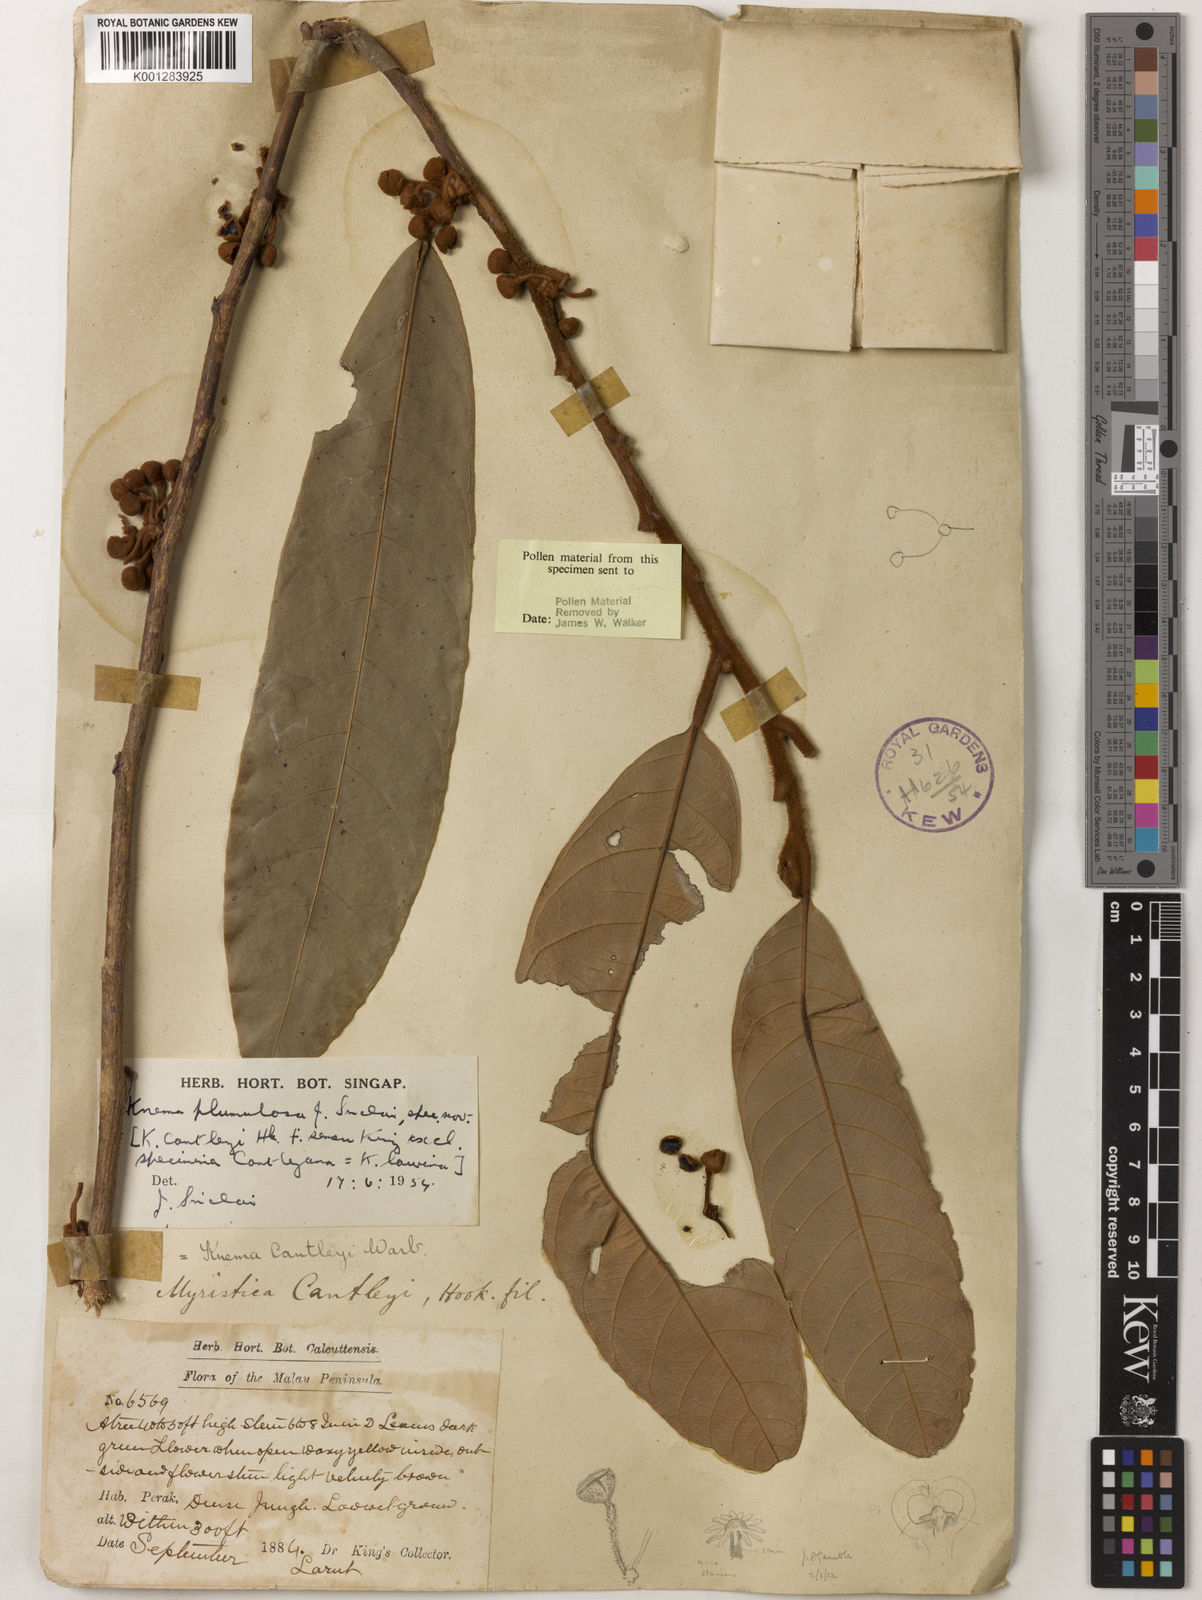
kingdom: Plantae
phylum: Tracheophyta
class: Magnoliopsida
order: Magnoliales
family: Myristicaceae
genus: Knema
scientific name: Knema plumulosa
